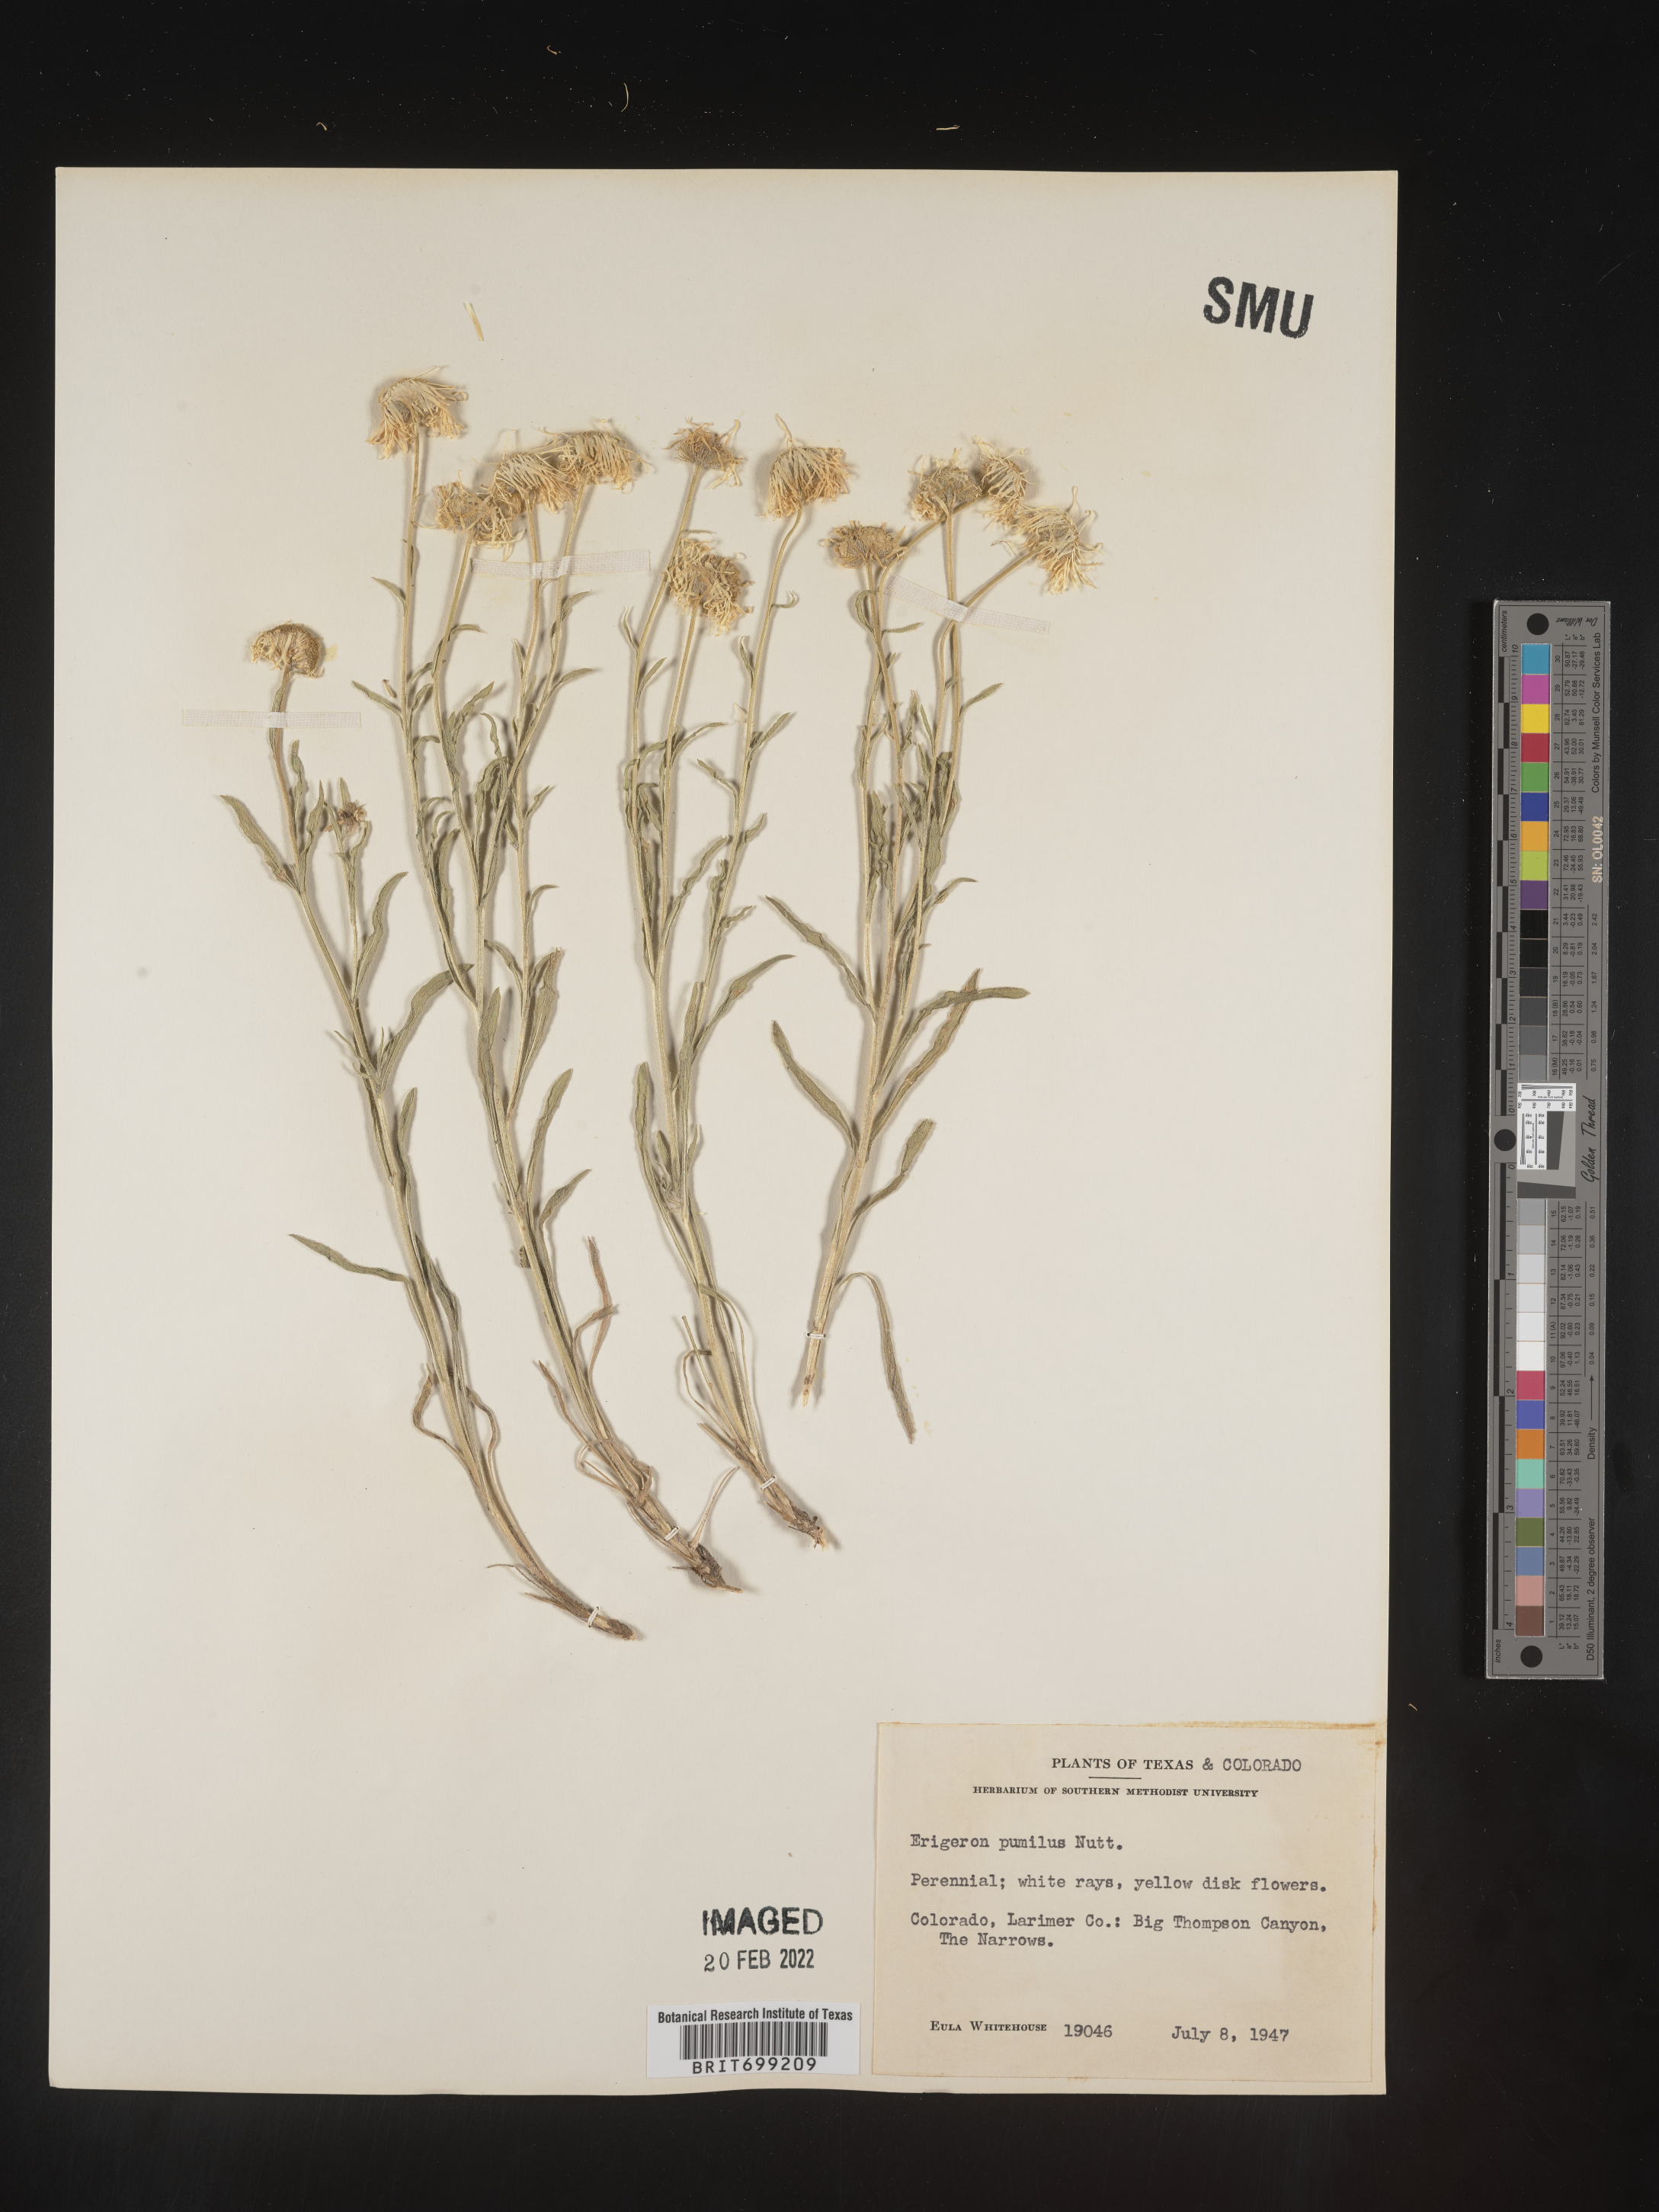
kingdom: Plantae
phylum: Tracheophyta
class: Magnoliopsida
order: Asterales
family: Asteraceae
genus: Erigeron
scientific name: Erigeron pumilus
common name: Shaggy fleabane
